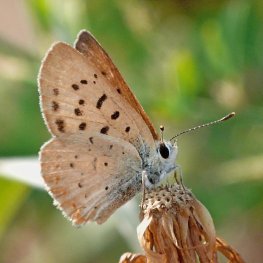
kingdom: Animalia
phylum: Arthropoda
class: Insecta
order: Lepidoptera
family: Sesiidae
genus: Sesia
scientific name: Sesia Lycaena helloides
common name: Purplish Copper
